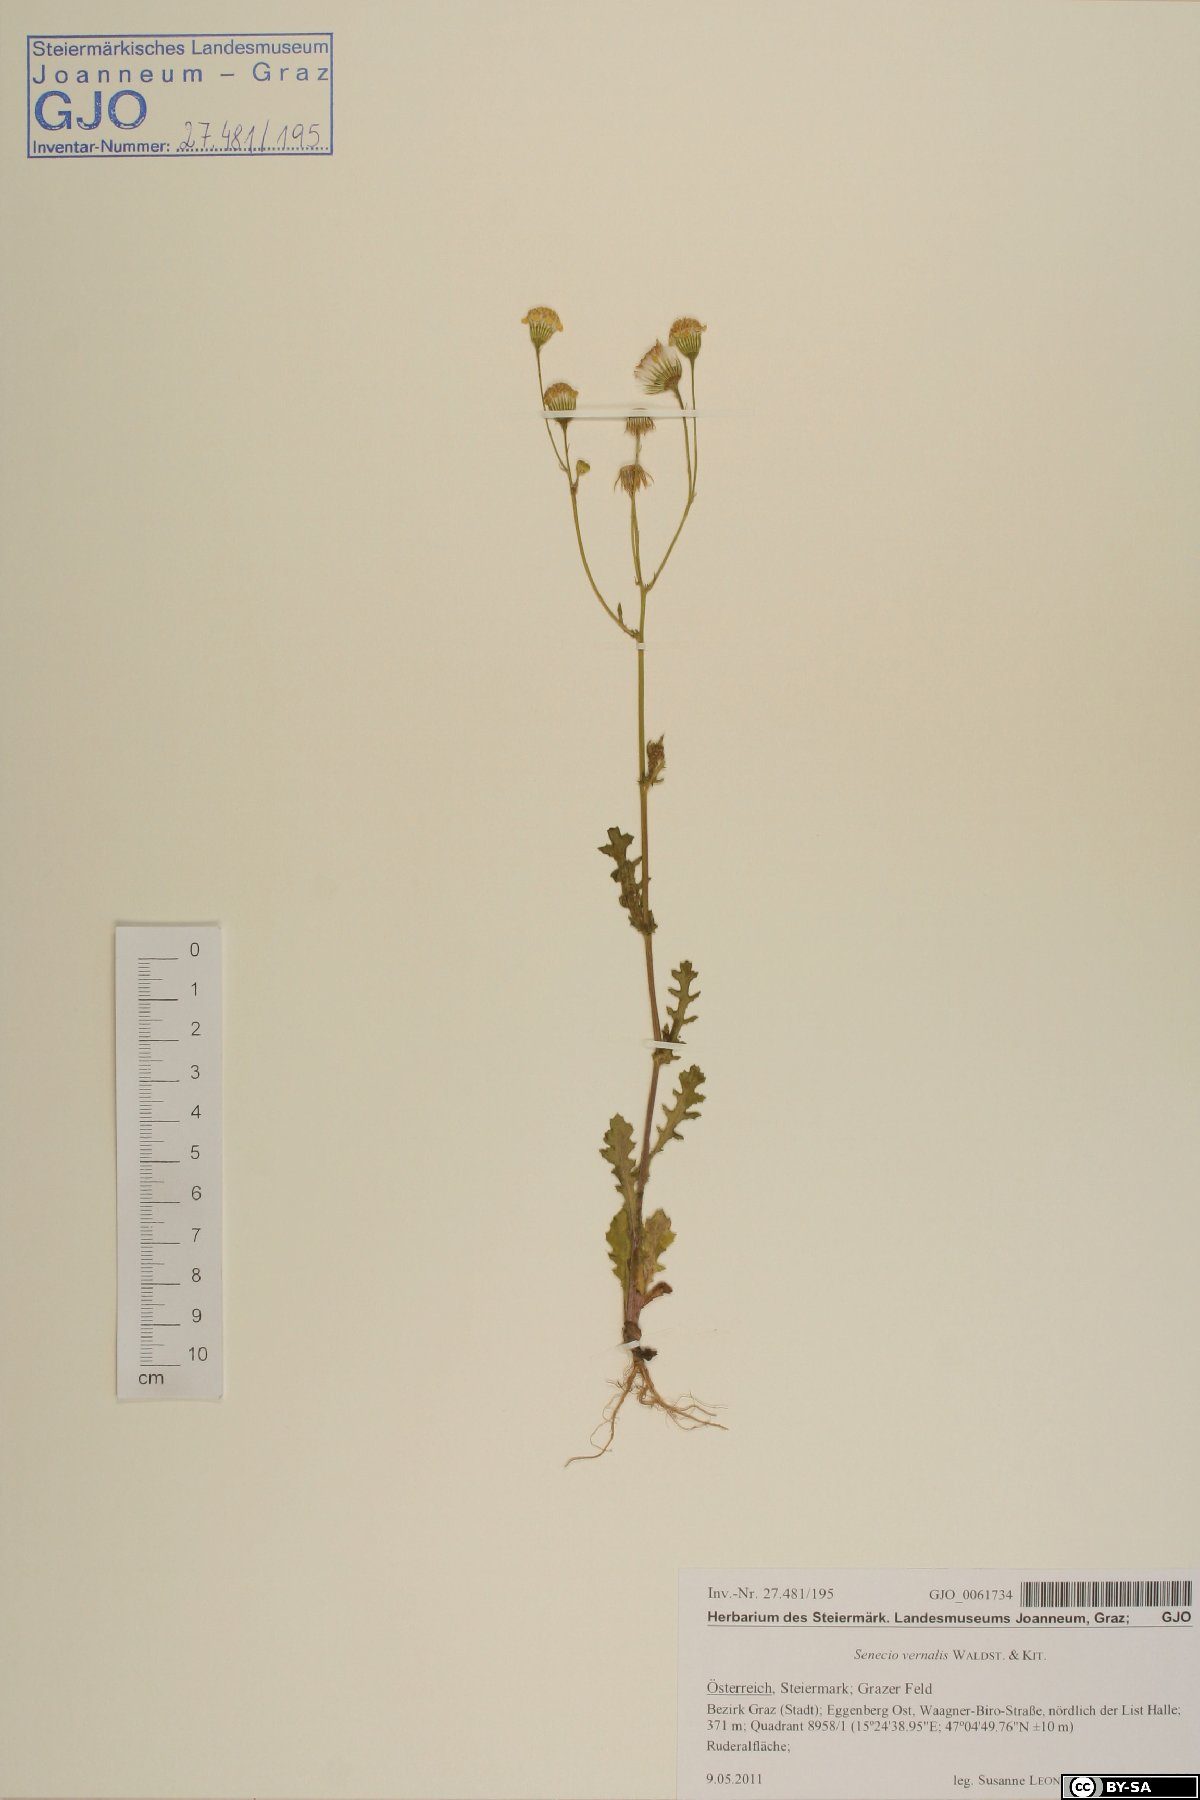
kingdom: Plantae
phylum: Tracheophyta
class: Magnoliopsida
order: Asterales
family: Asteraceae
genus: Senecio
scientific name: Senecio vernalis
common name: Eastern groundsel
